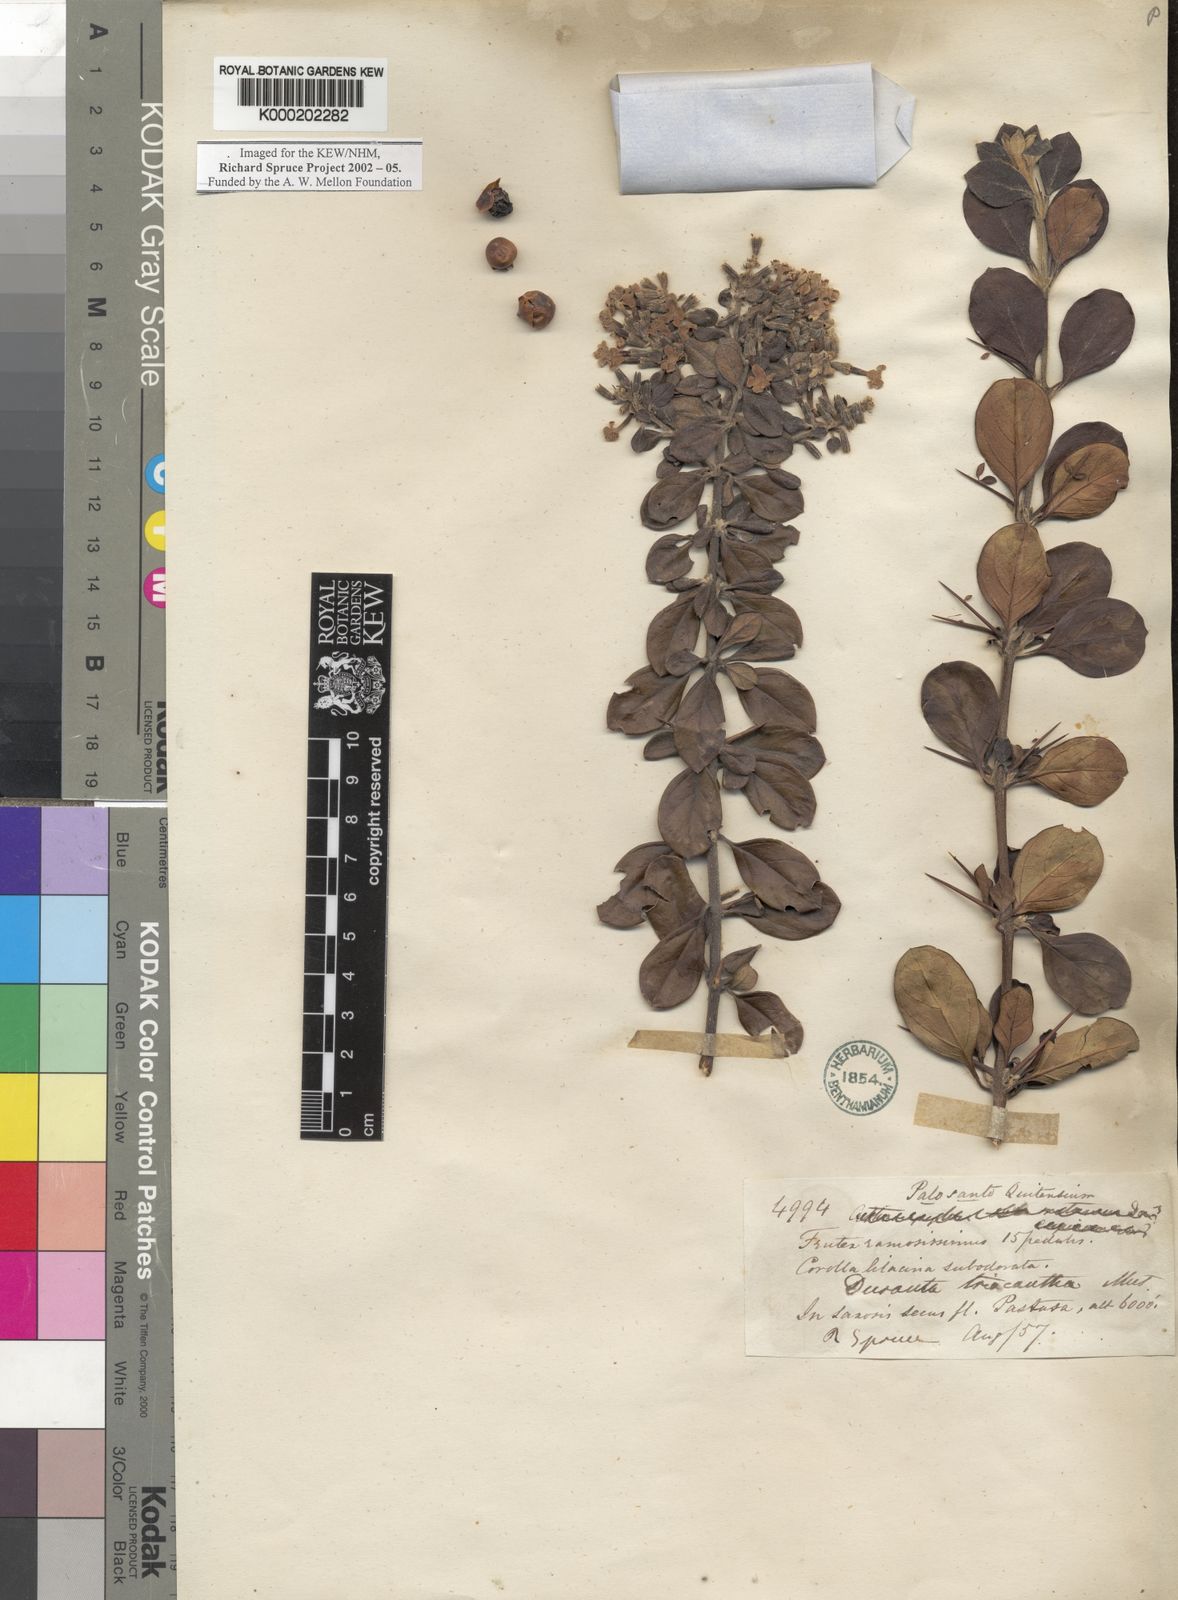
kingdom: Plantae
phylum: Tracheophyta
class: Magnoliopsida
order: Lamiales
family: Verbenaceae
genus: Duranta
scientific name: Duranta triacantha
